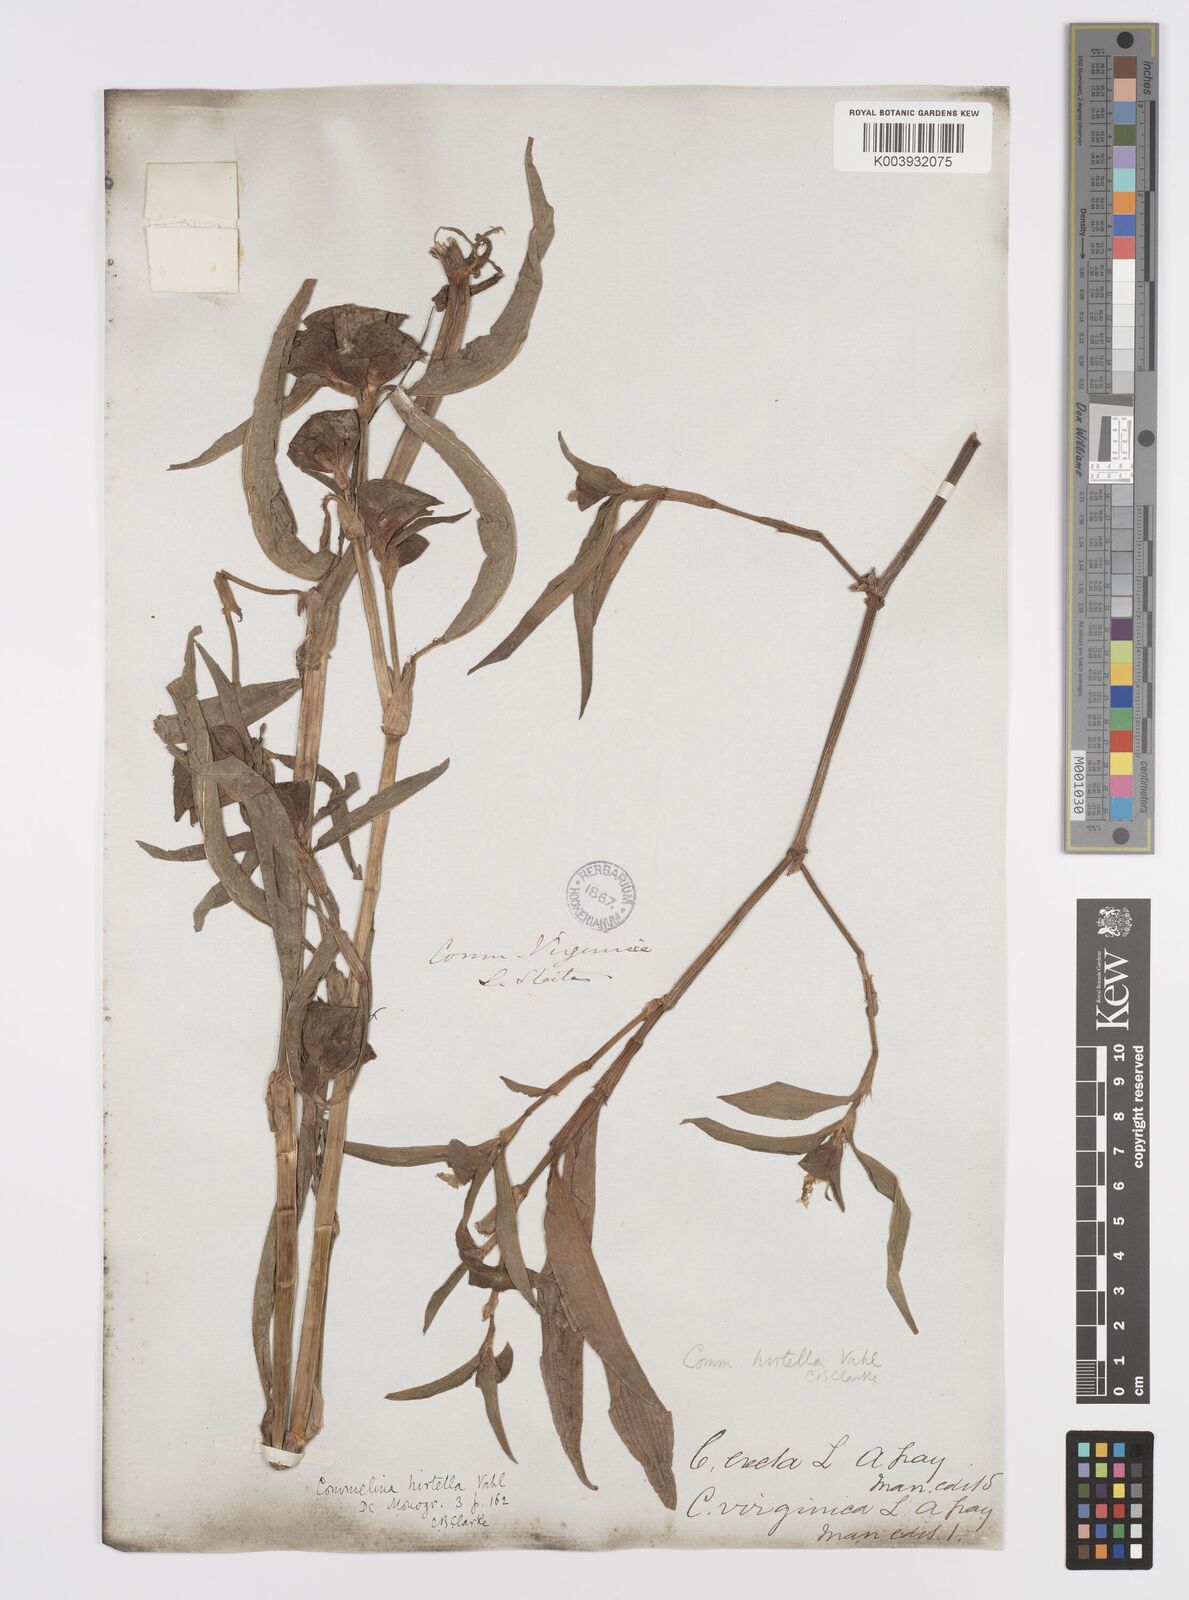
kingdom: Plantae
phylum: Tracheophyta
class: Liliopsida
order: Commelinales
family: Commelinaceae
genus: Commelina
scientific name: Commelina virginica
